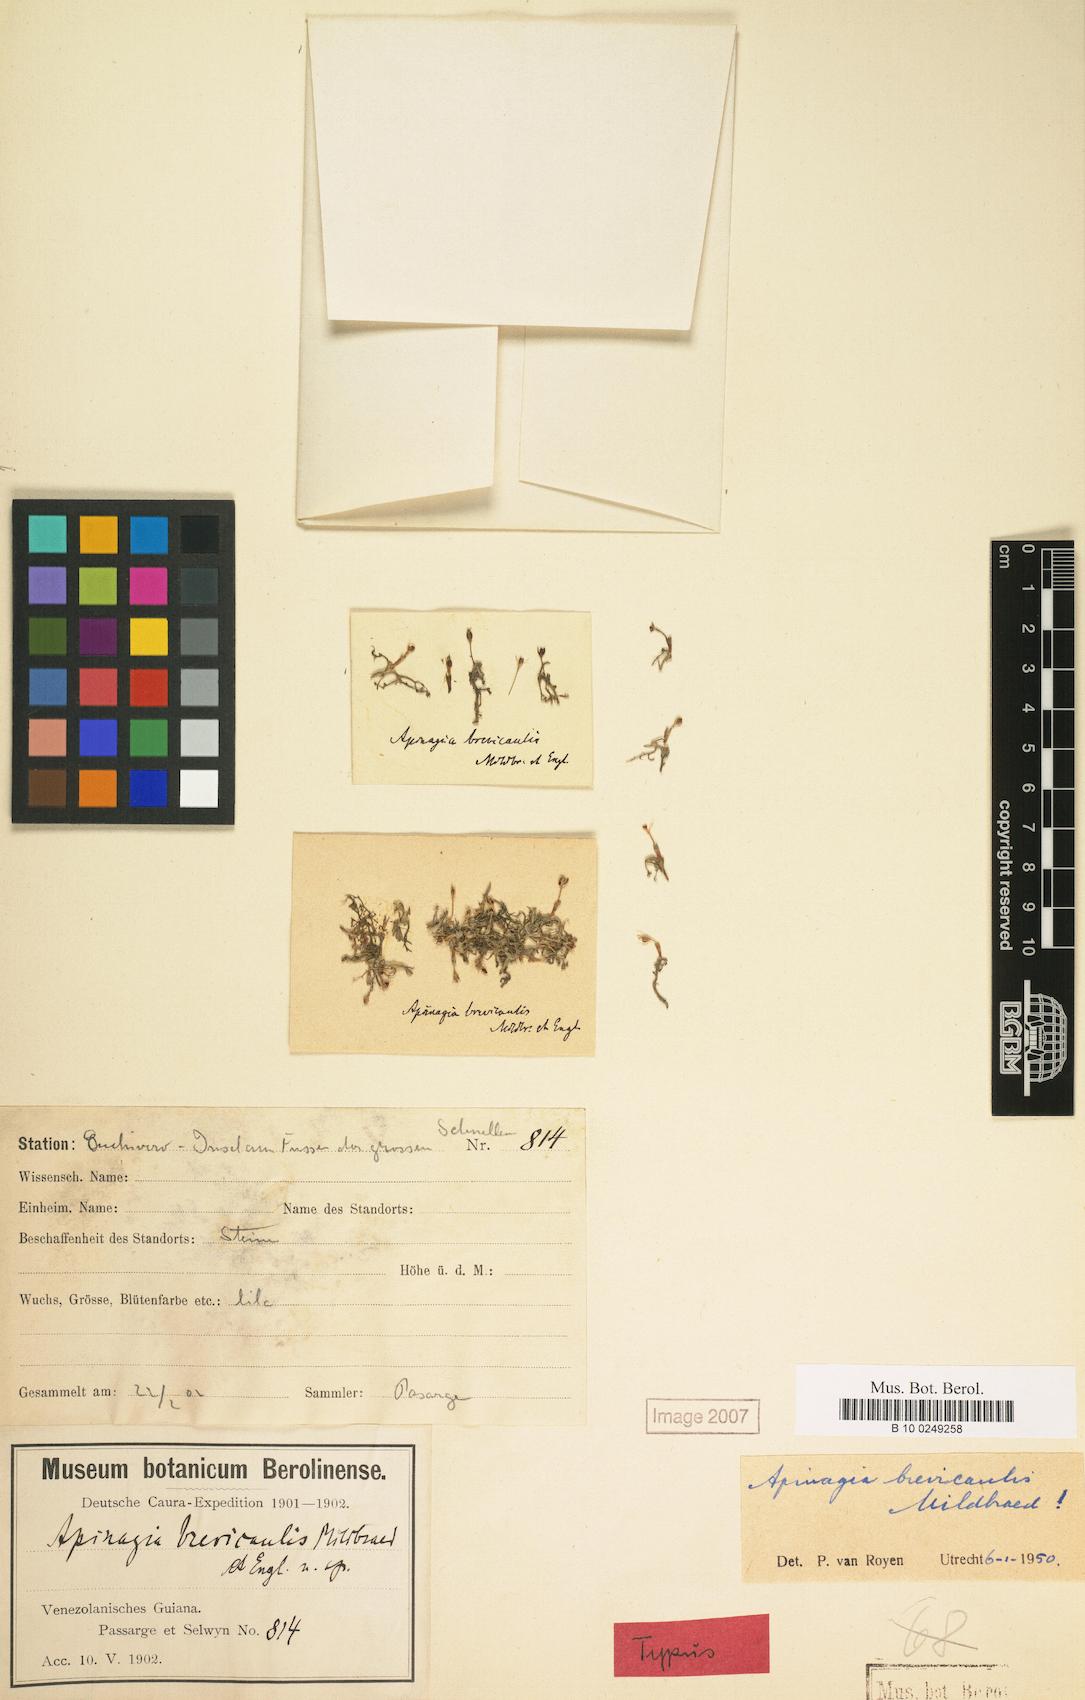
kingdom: Plantae
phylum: Tracheophyta
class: Magnoliopsida
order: Malpighiales
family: Podostemaceae
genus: Apinagia
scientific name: Apinagia brevicaulis
